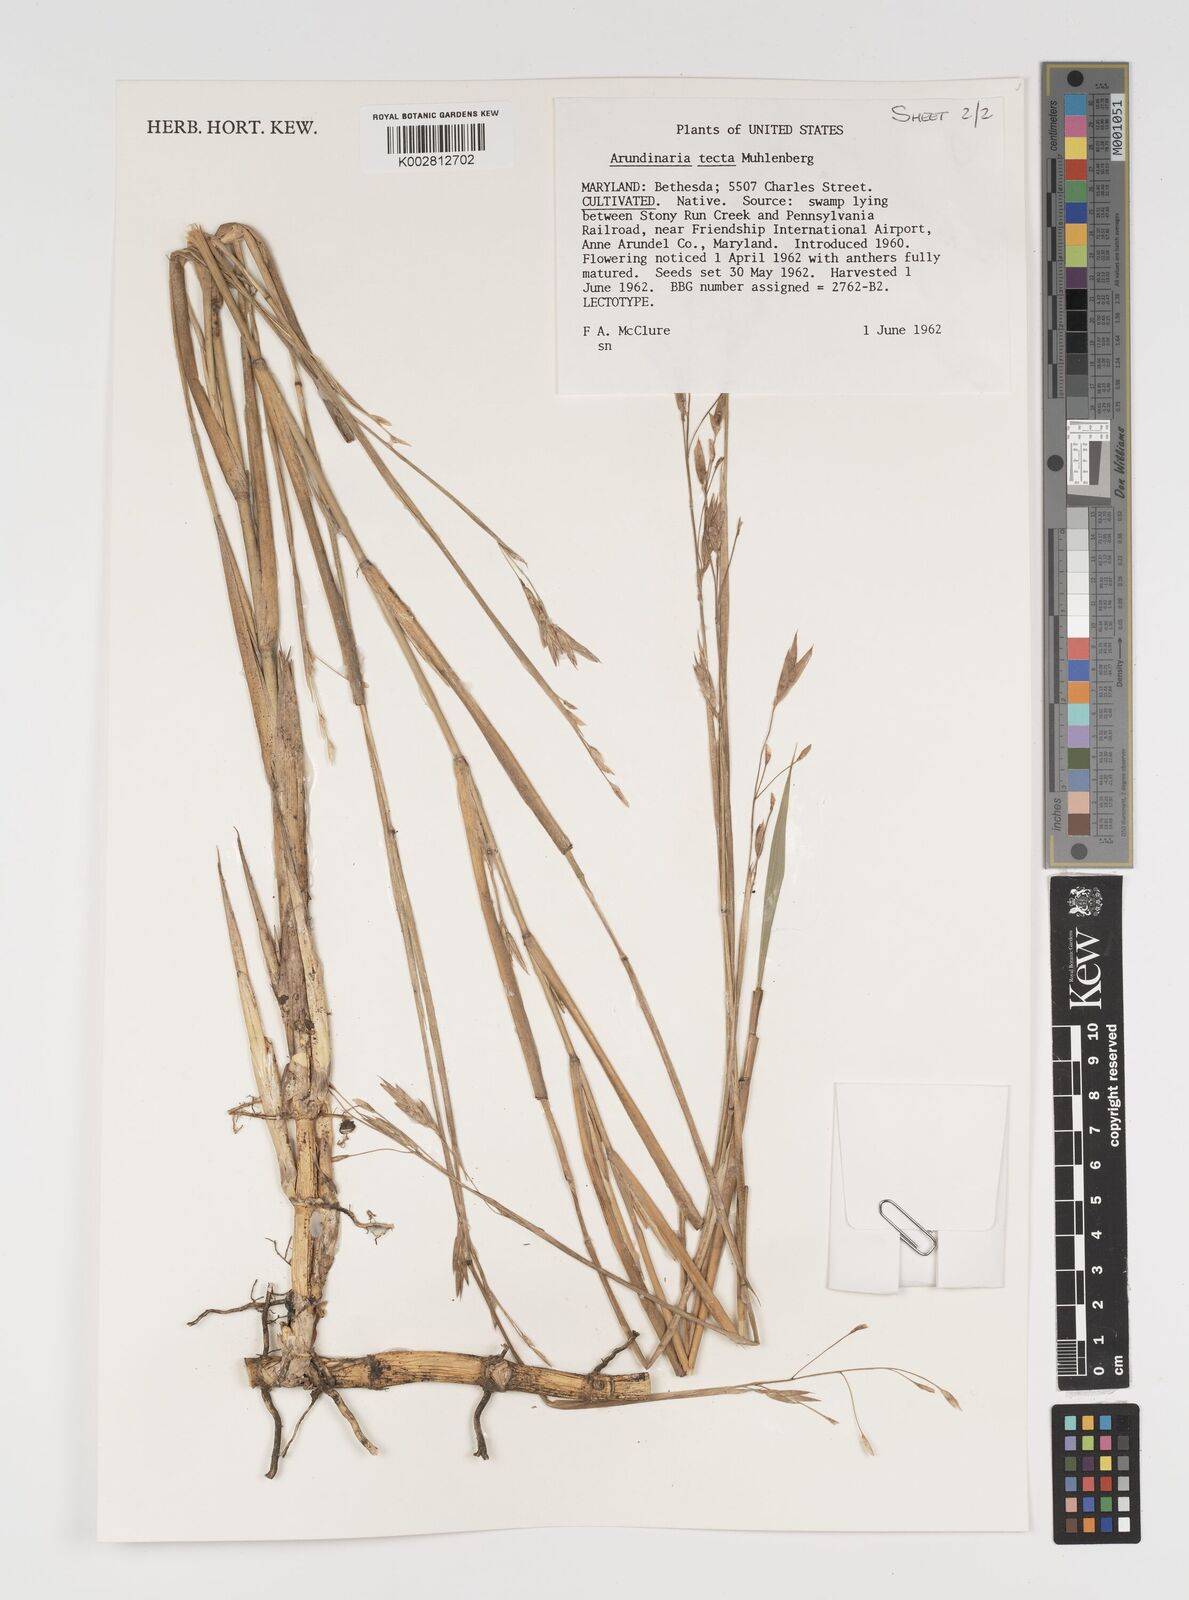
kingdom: Plantae
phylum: Tracheophyta
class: Liliopsida
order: Poales
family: Poaceae
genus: Arundinaria
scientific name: Arundinaria tecta
